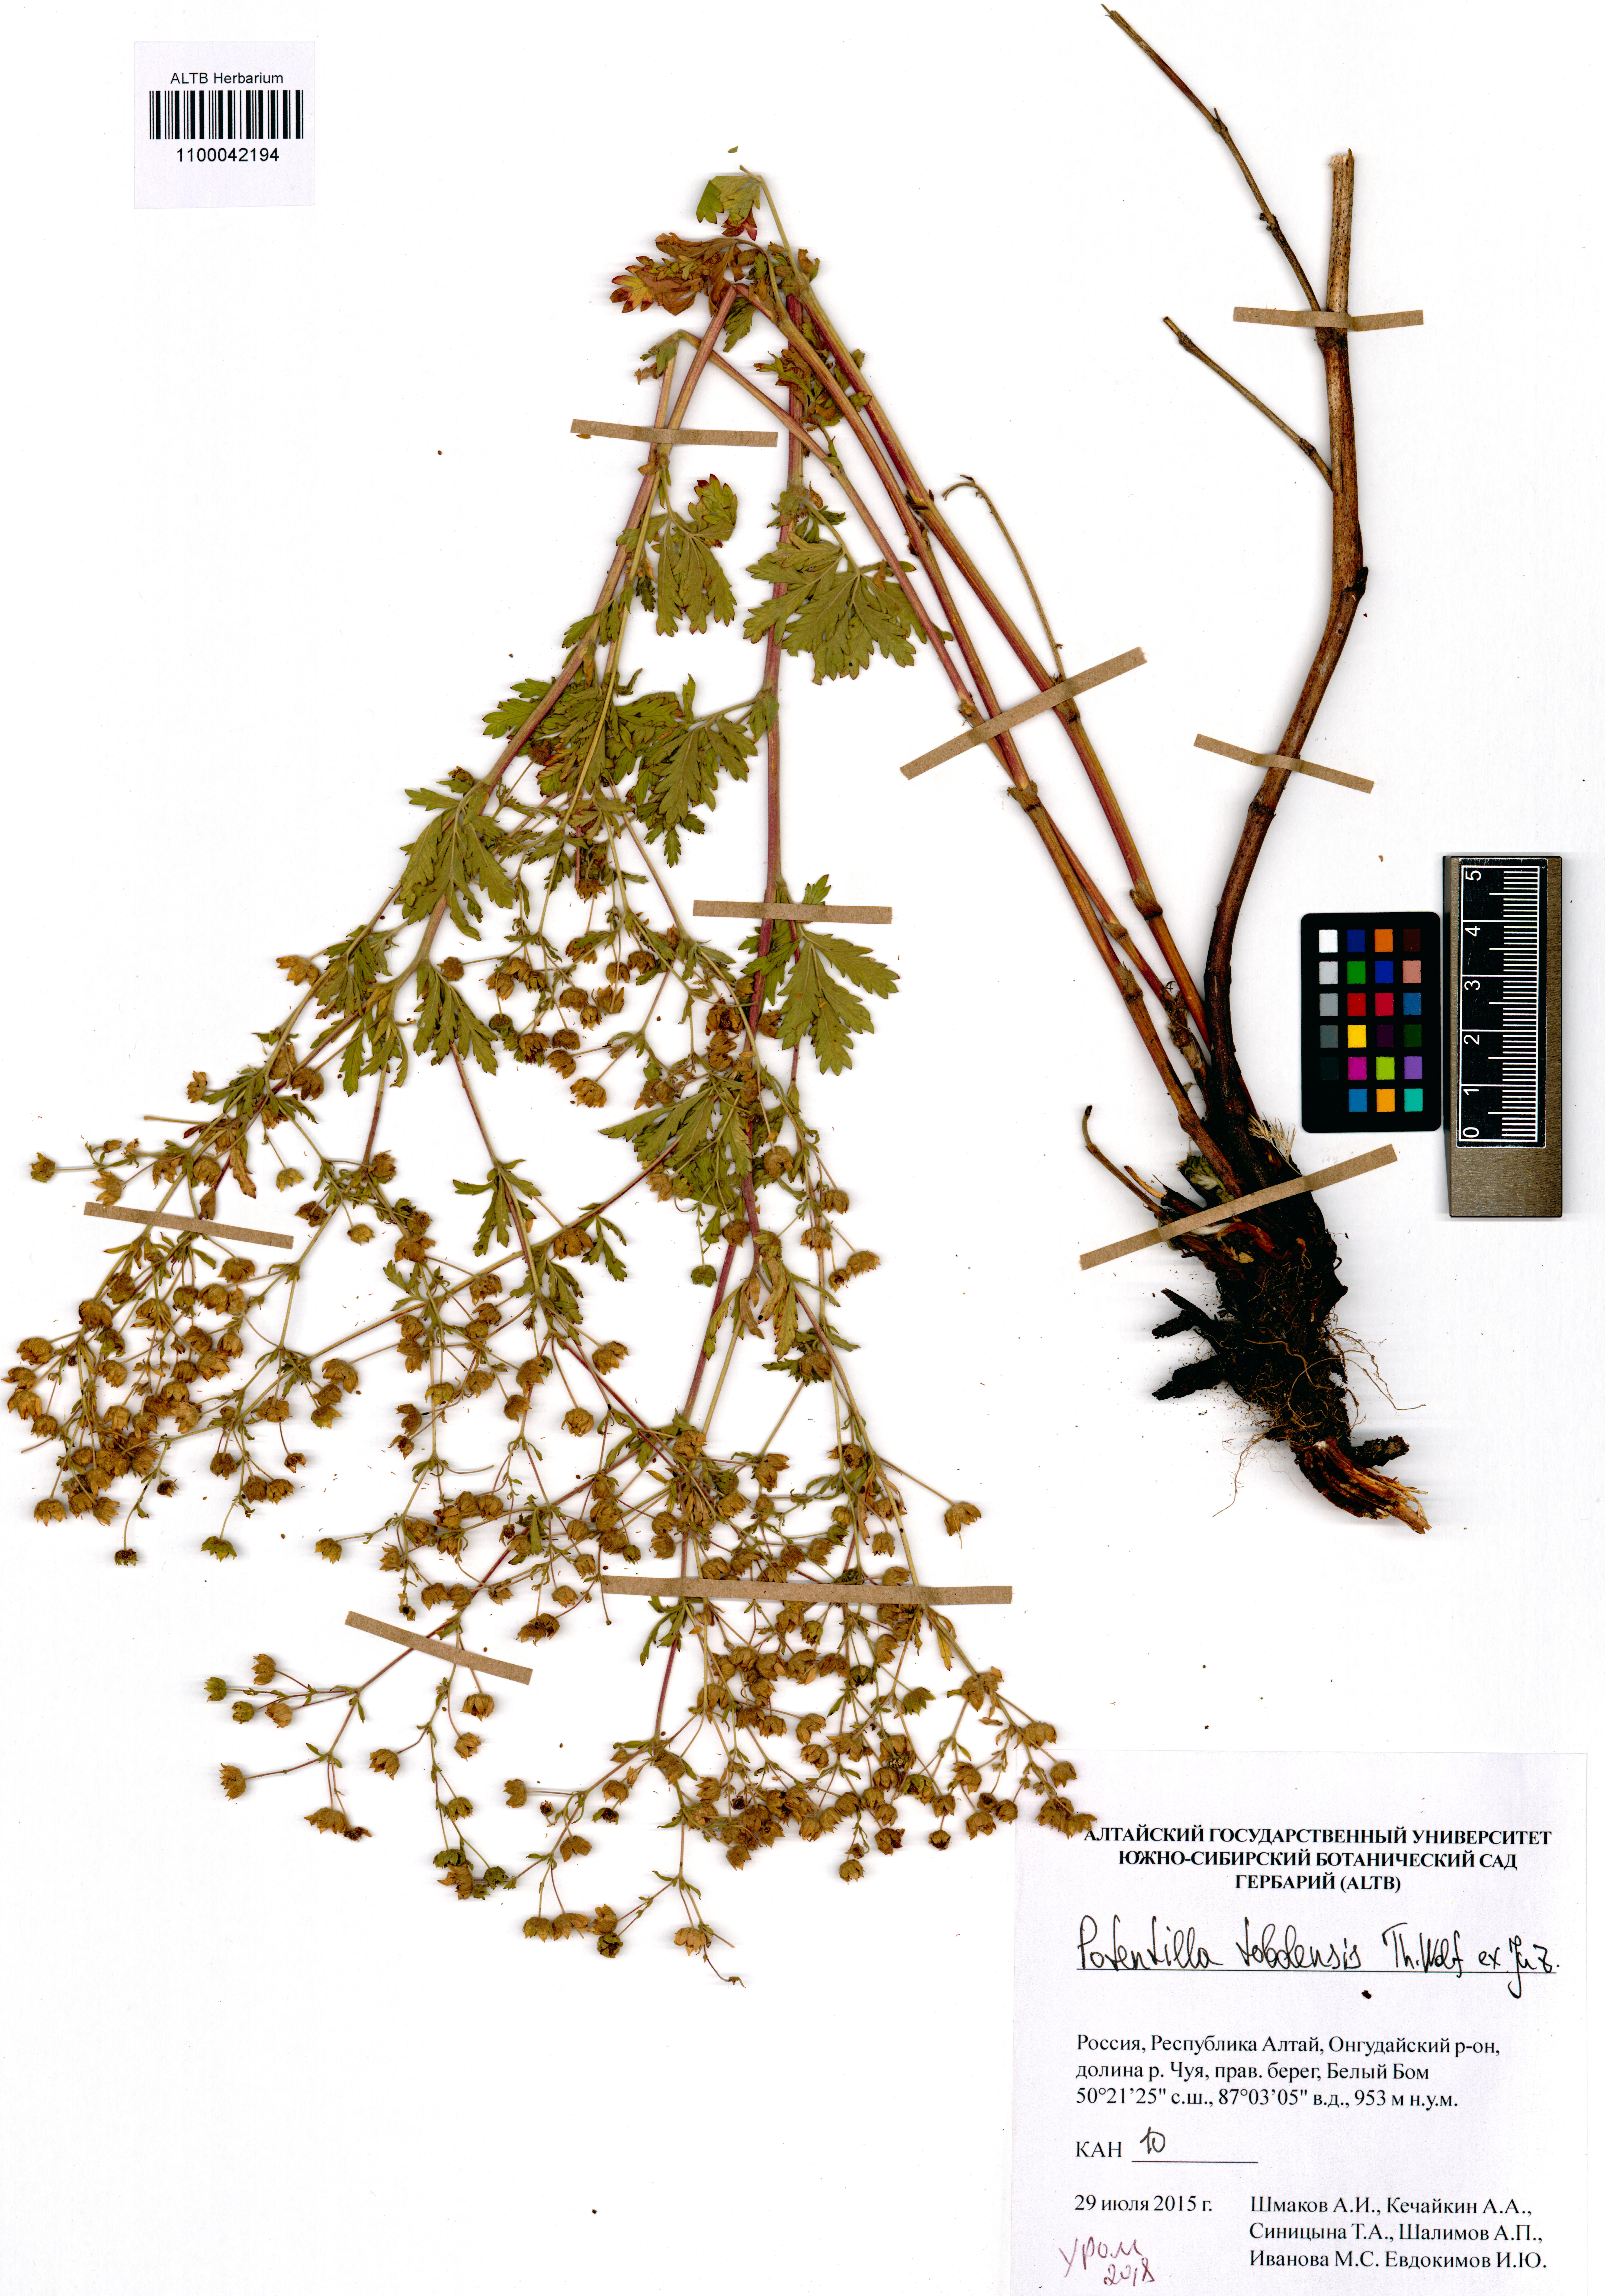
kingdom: Plantae
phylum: Tracheophyta
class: Magnoliopsida
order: Rosales
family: Rosaceae
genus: Potentilla
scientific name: Potentilla tobolensis
